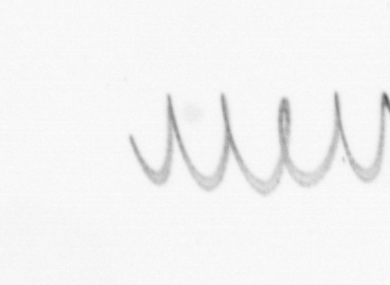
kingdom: Chromista
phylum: Ochrophyta
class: Bacillariophyceae
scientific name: Bacillariophyceae
